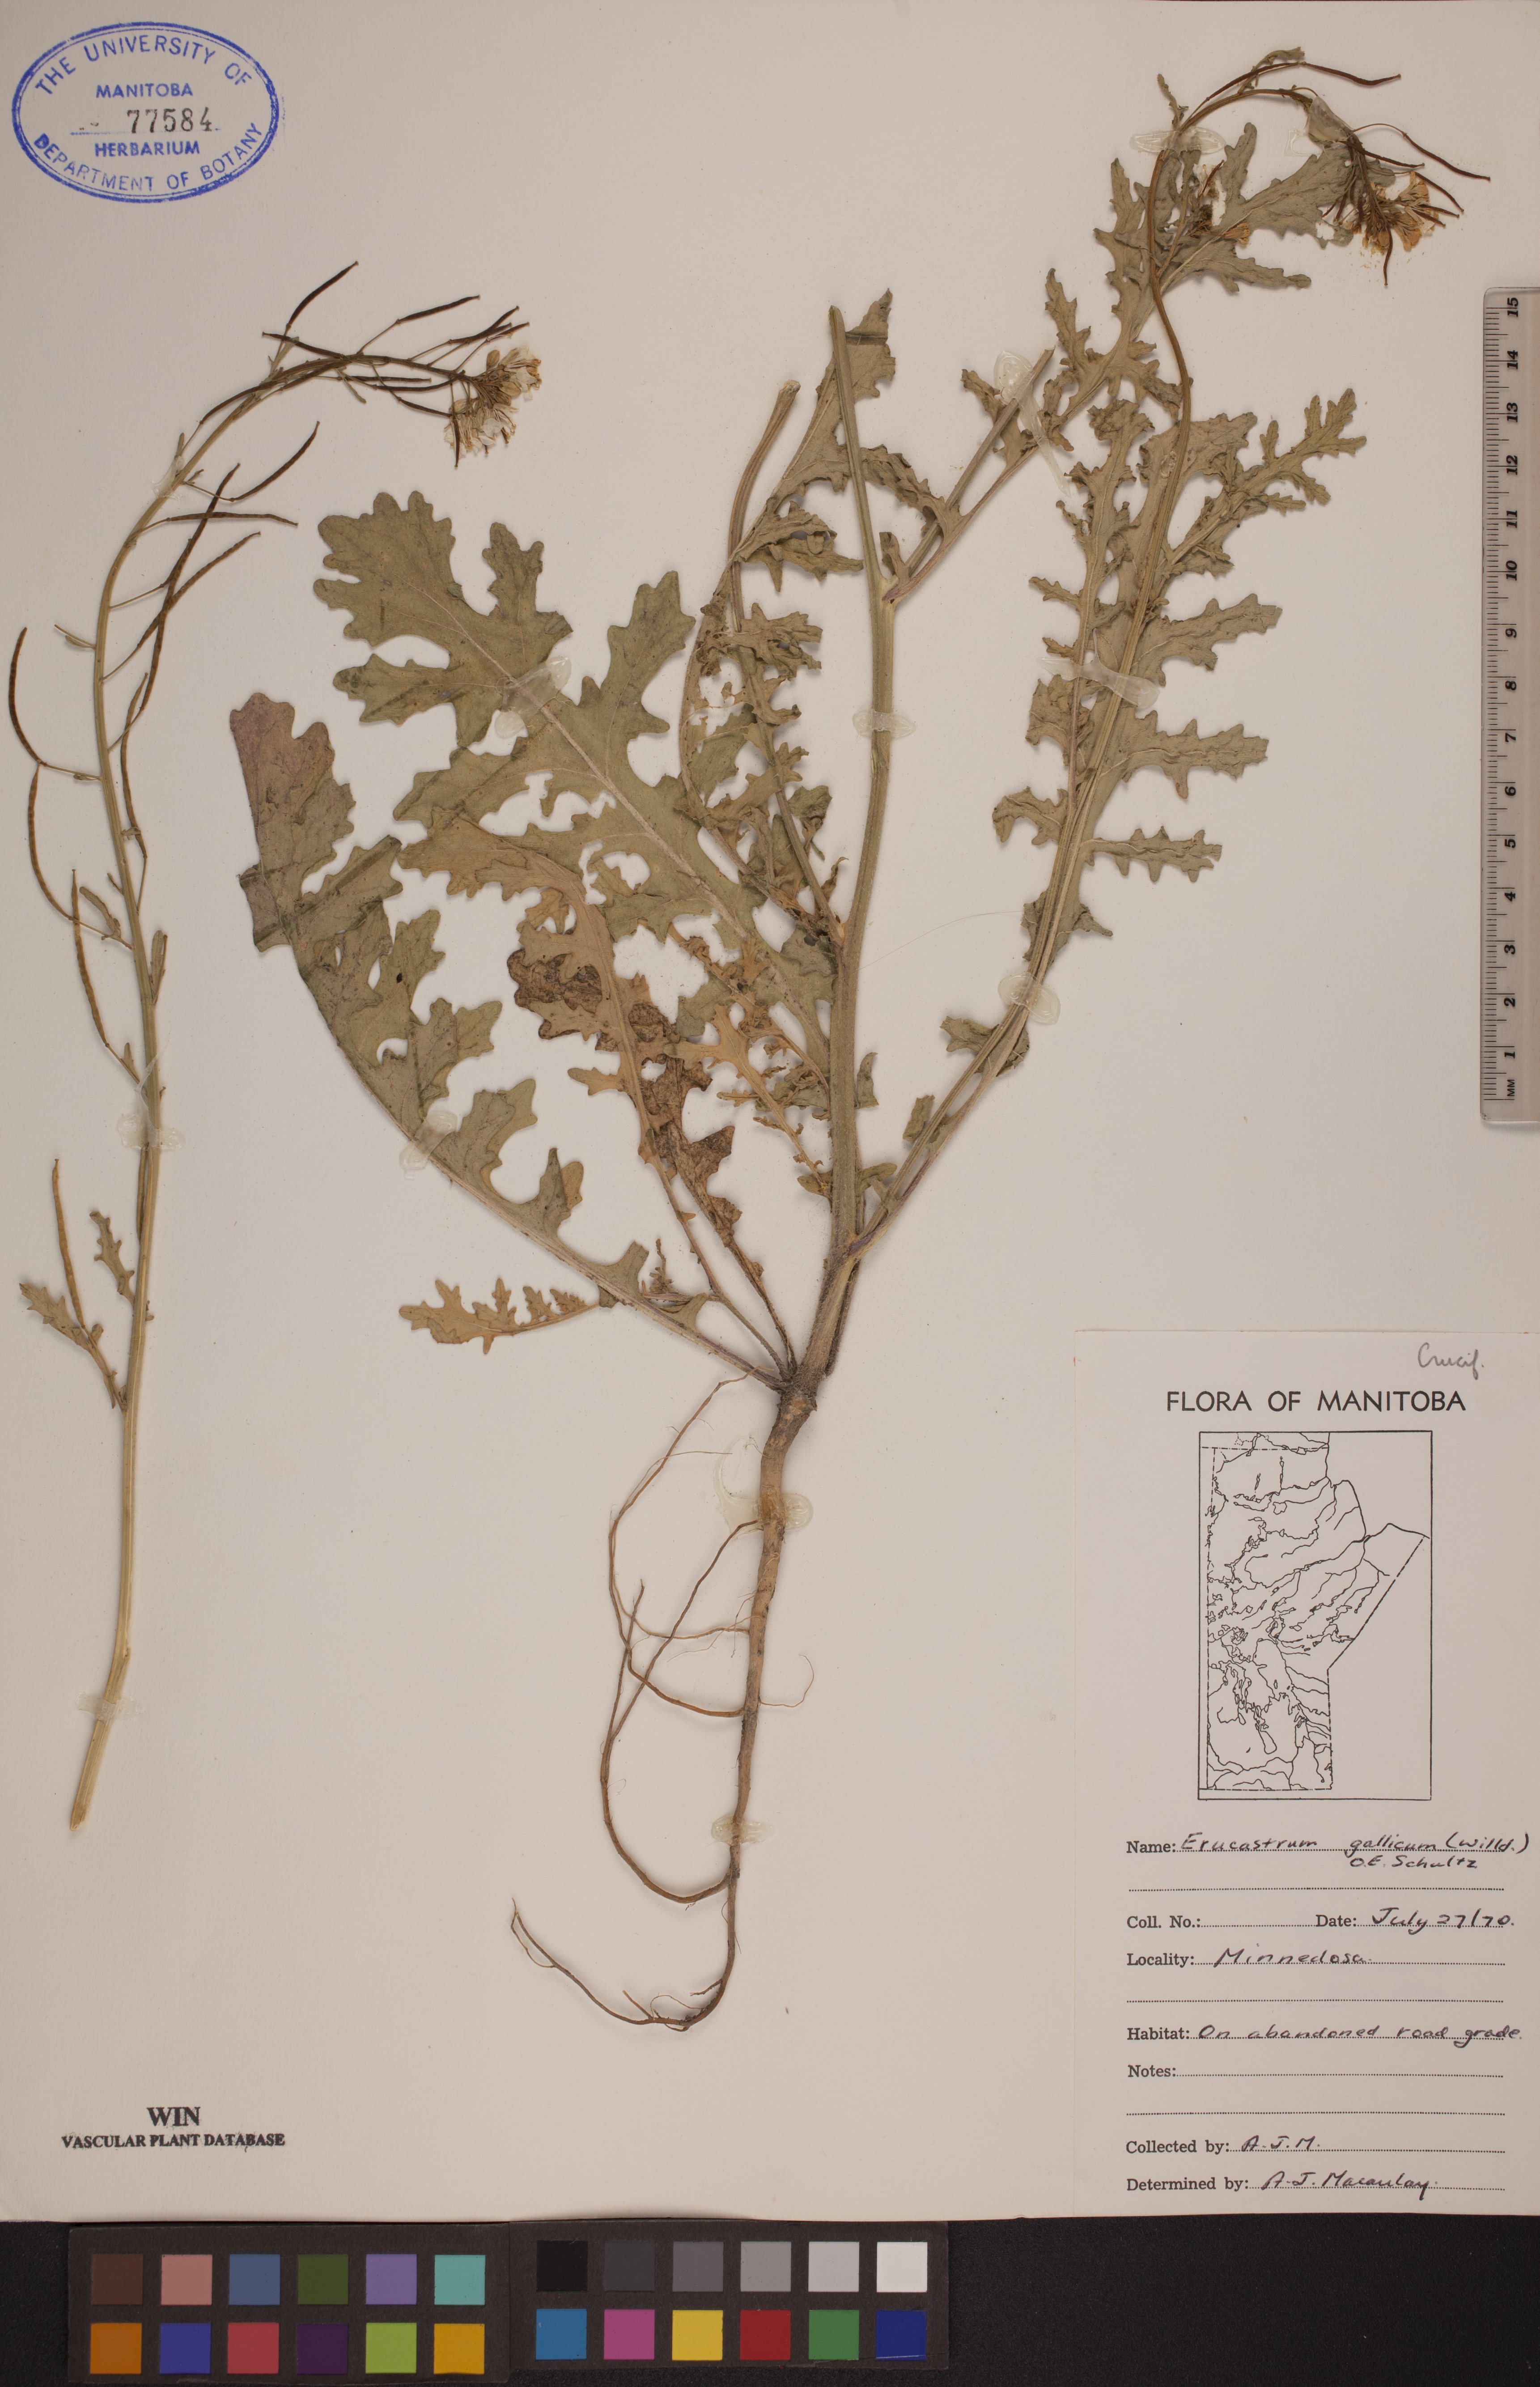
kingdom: Plantae
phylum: Tracheophyta
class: Magnoliopsida
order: Brassicales
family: Brassicaceae
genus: Erucastrum
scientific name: Erucastrum gallicum
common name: Hairy rocket
